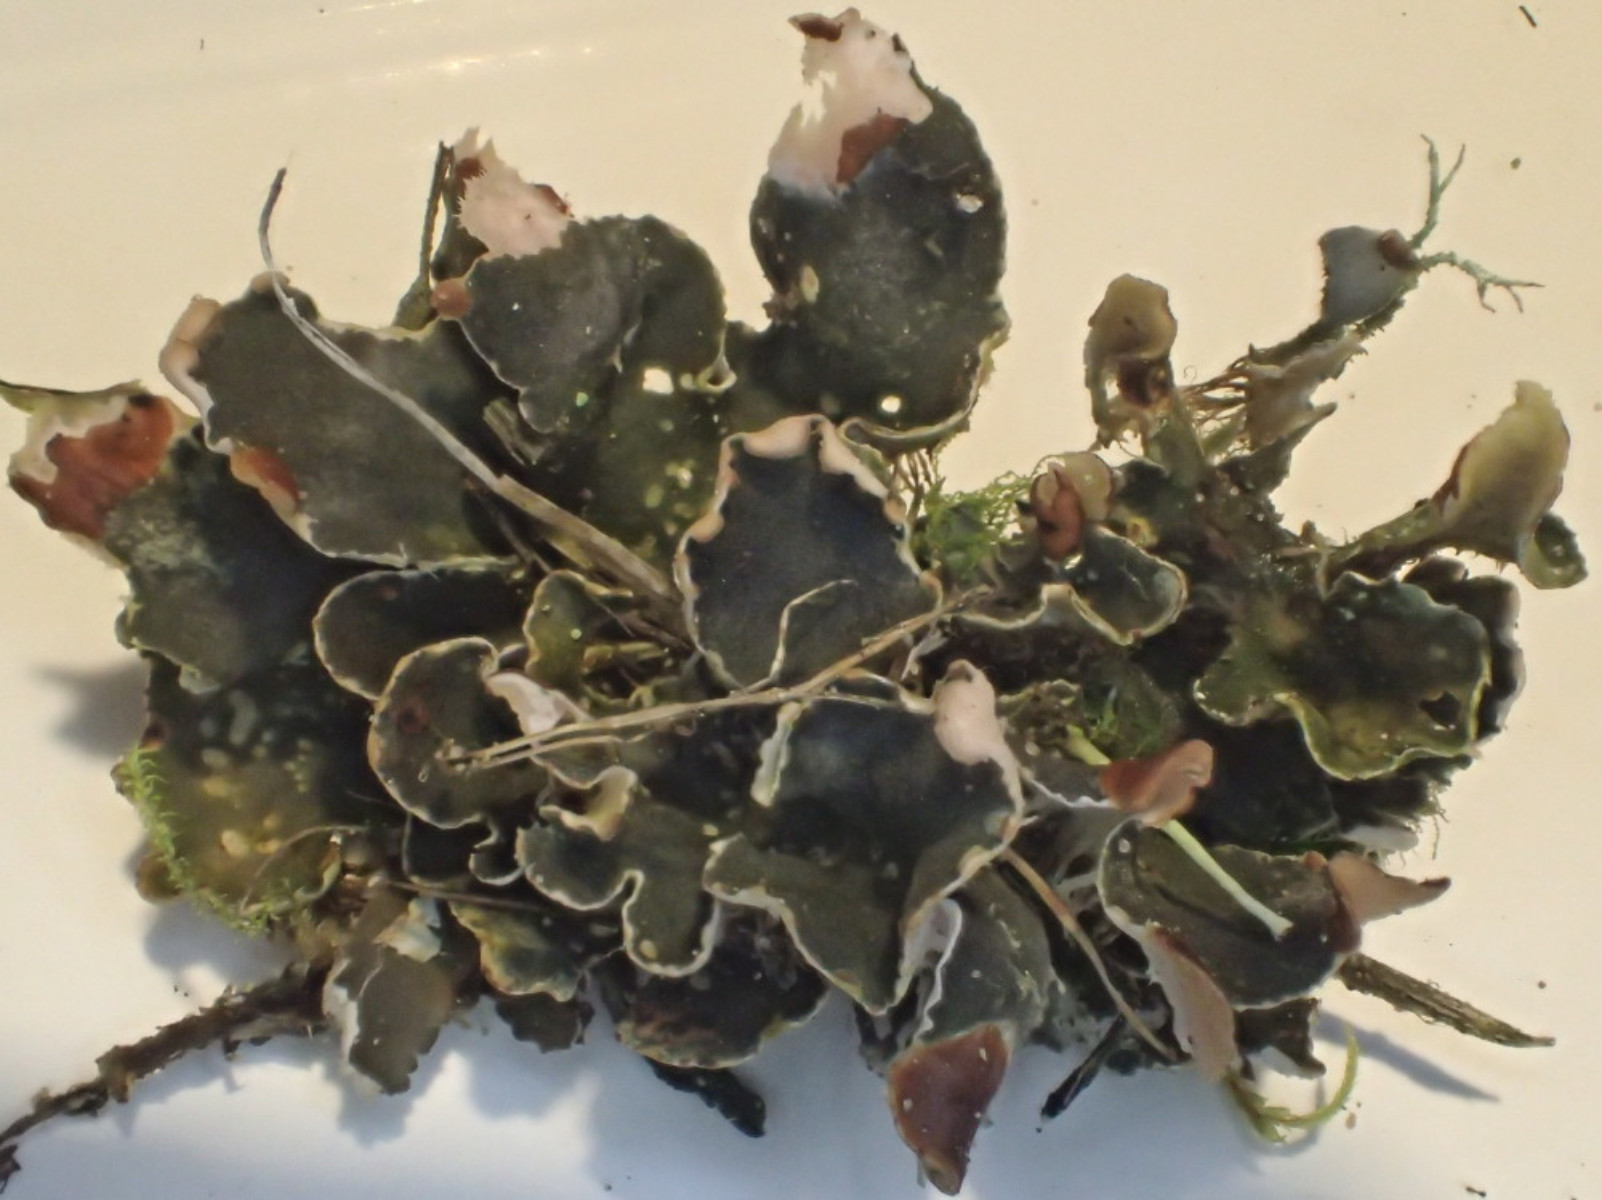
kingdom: Fungi
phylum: Ascomycota
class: Lecanoromycetes
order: Peltigerales
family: Peltigeraceae
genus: Peltigera
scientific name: Peltigera didactyla
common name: liden skjoldlav
